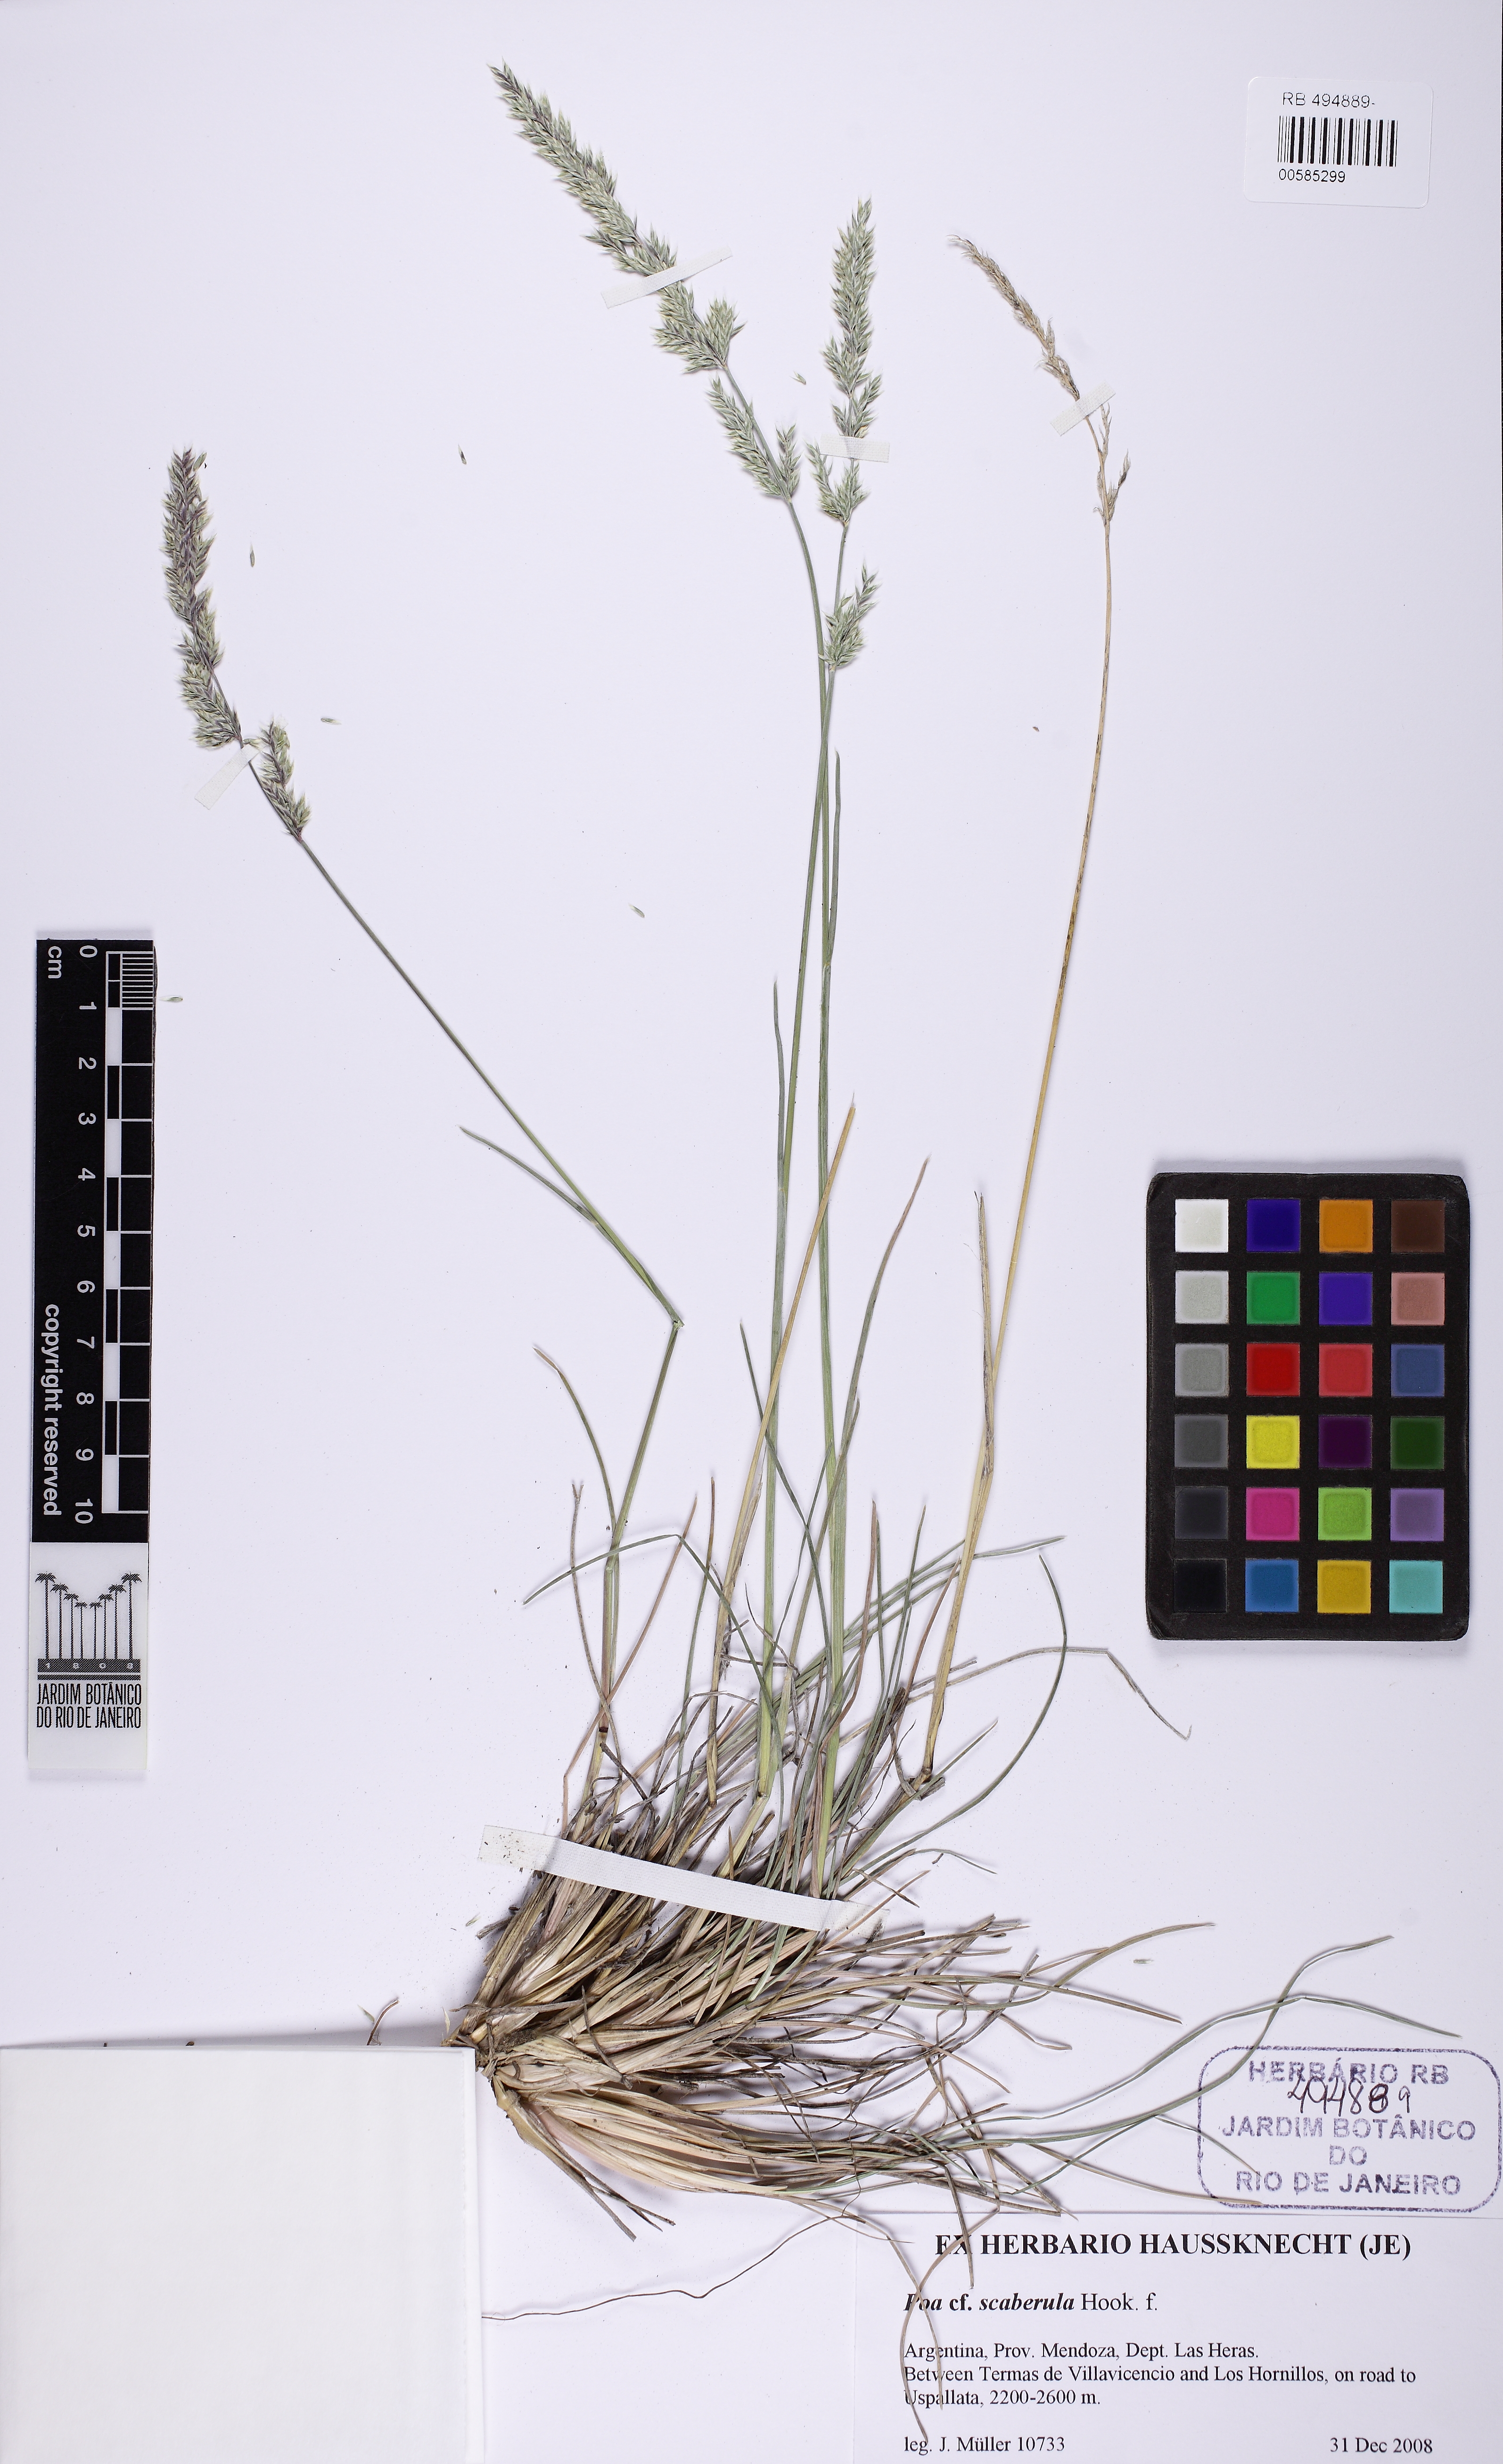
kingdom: Plantae
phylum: Tracheophyta
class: Liliopsida
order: Poales
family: Poaceae
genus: Poa
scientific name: Poa scaberula
